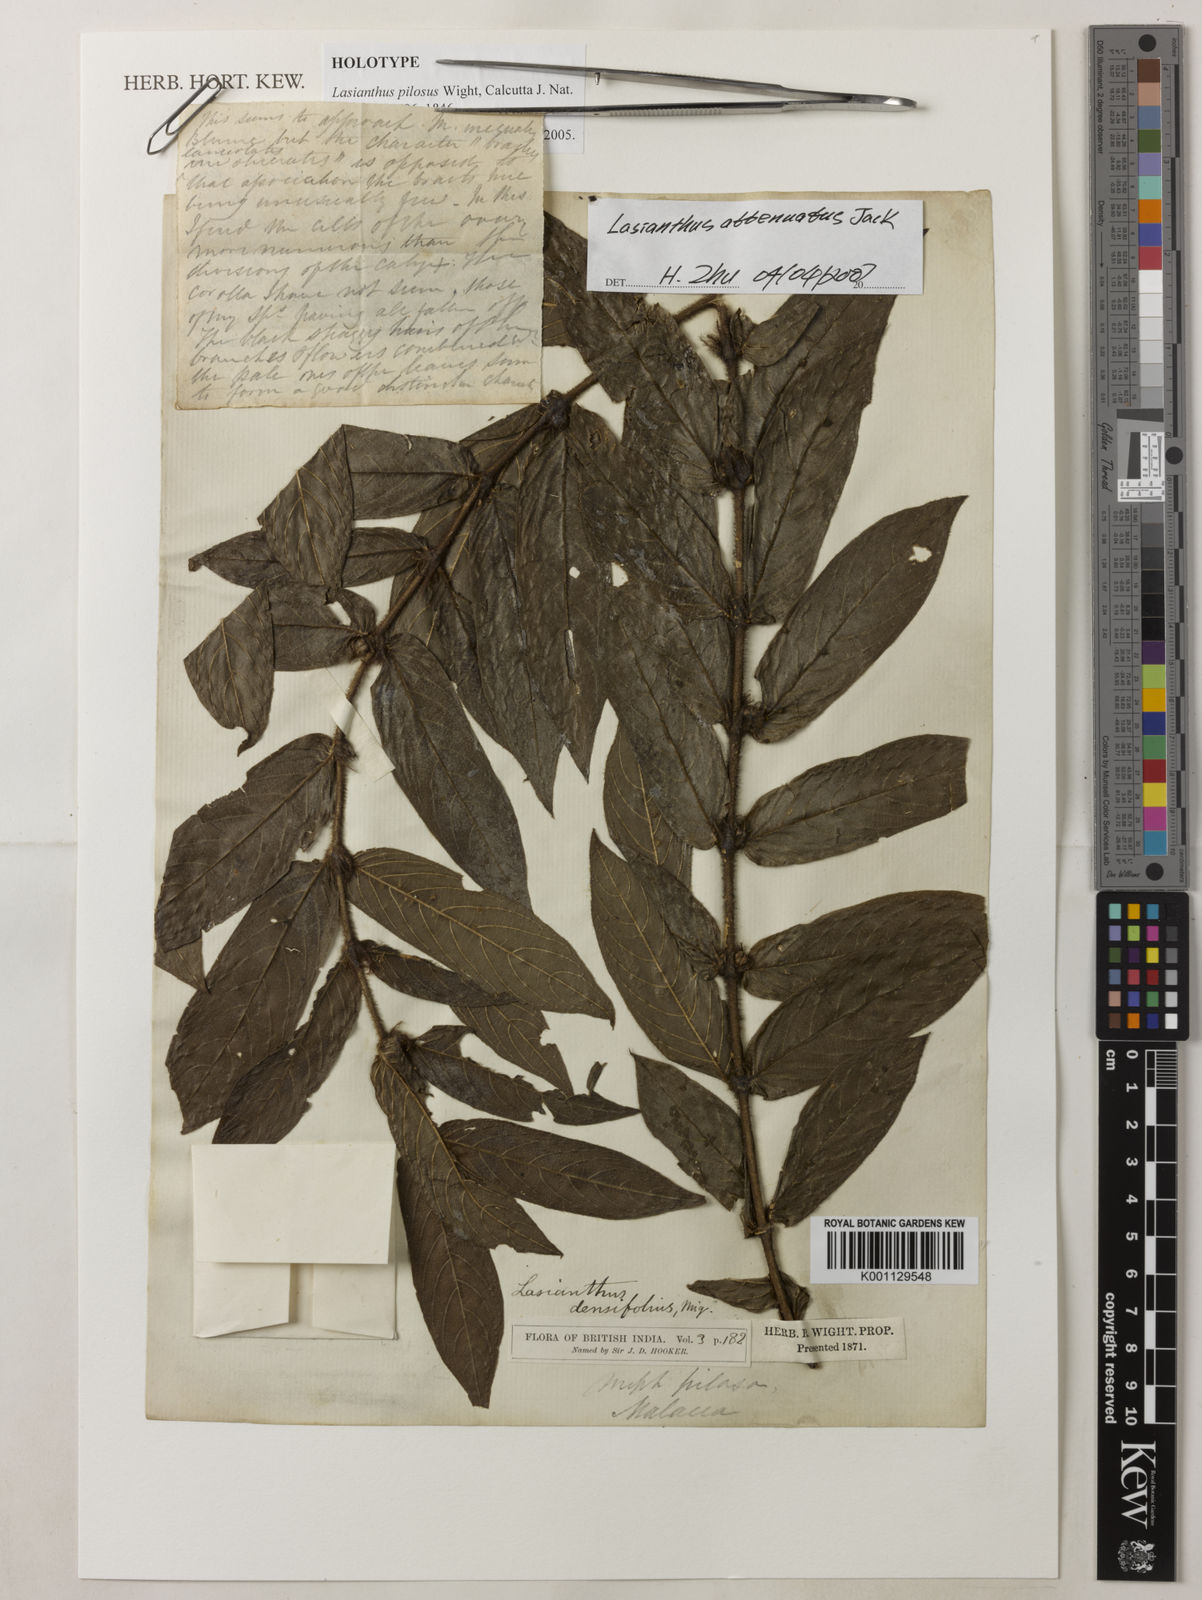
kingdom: Plantae
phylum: Tracheophyta
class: Magnoliopsida
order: Gentianales
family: Rubiaceae
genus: Lasianthus
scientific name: Lasianthus attenuatus
